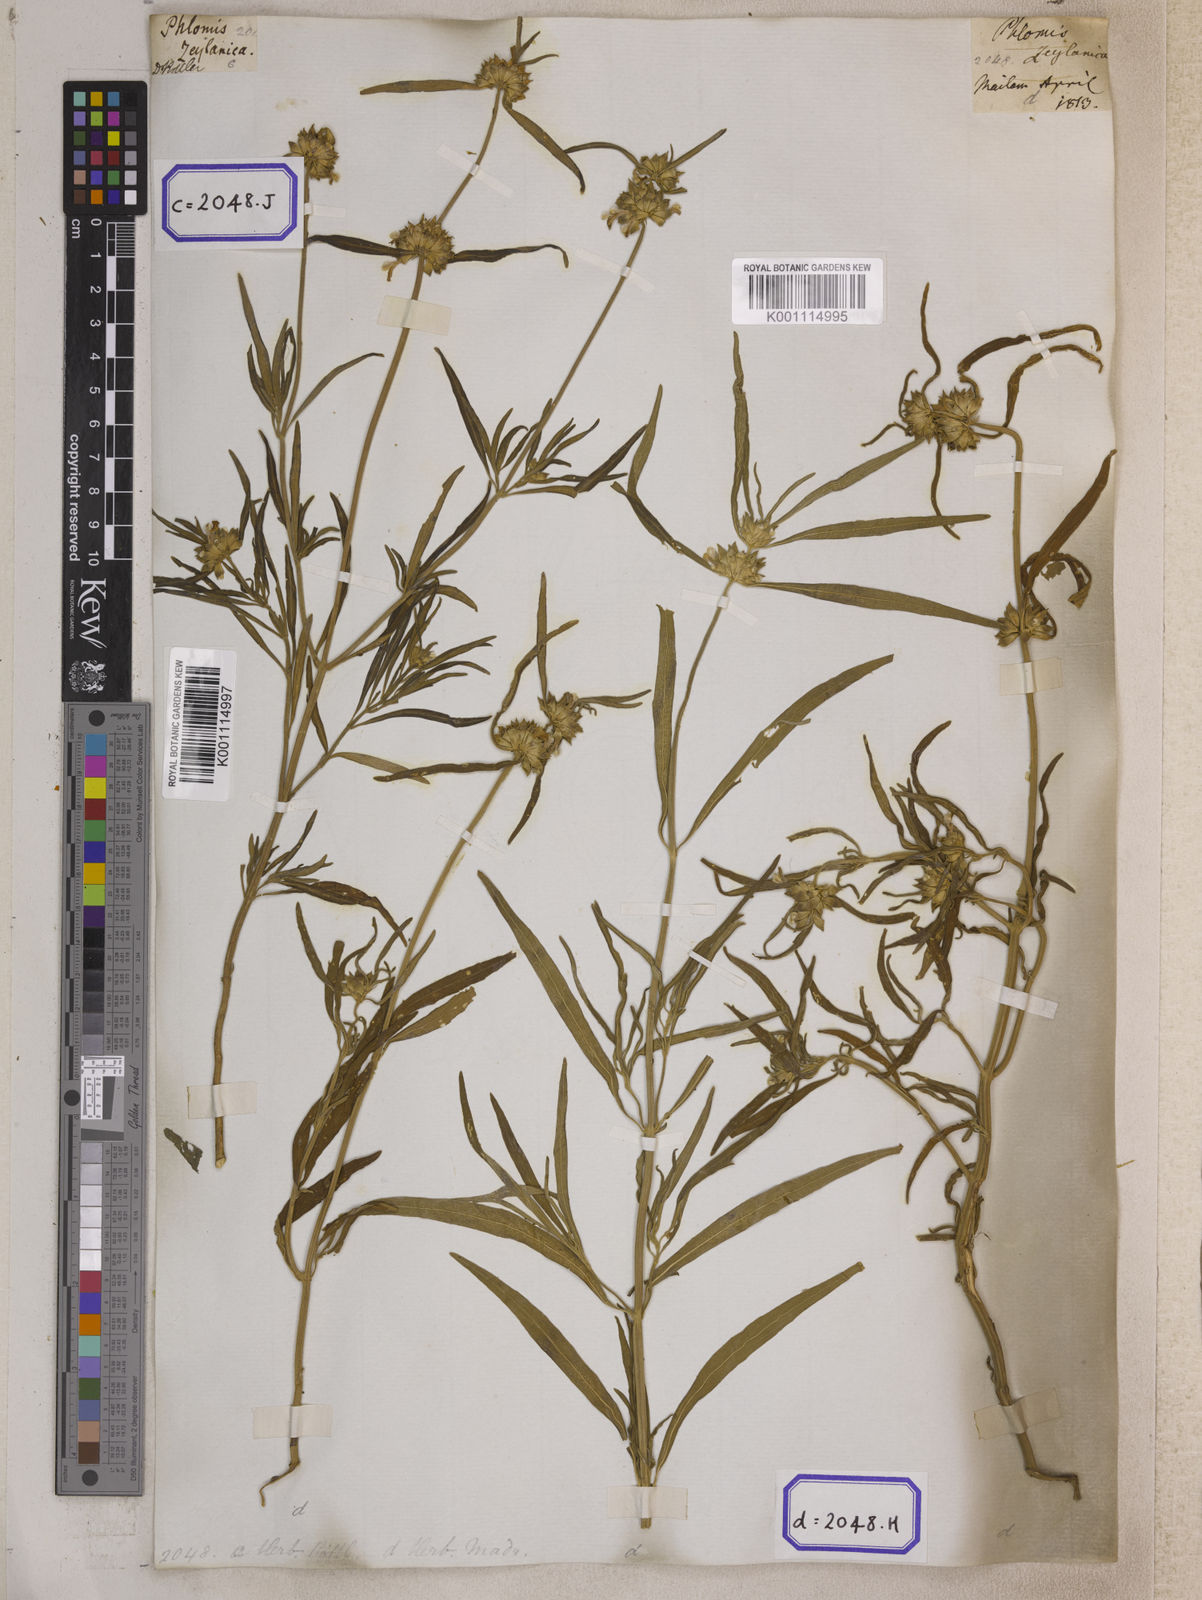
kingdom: Plantae
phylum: Tracheophyta
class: Magnoliopsida
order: Lamiales
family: Lamiaceae
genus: Leucas
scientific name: Leucas lavandulifolia
